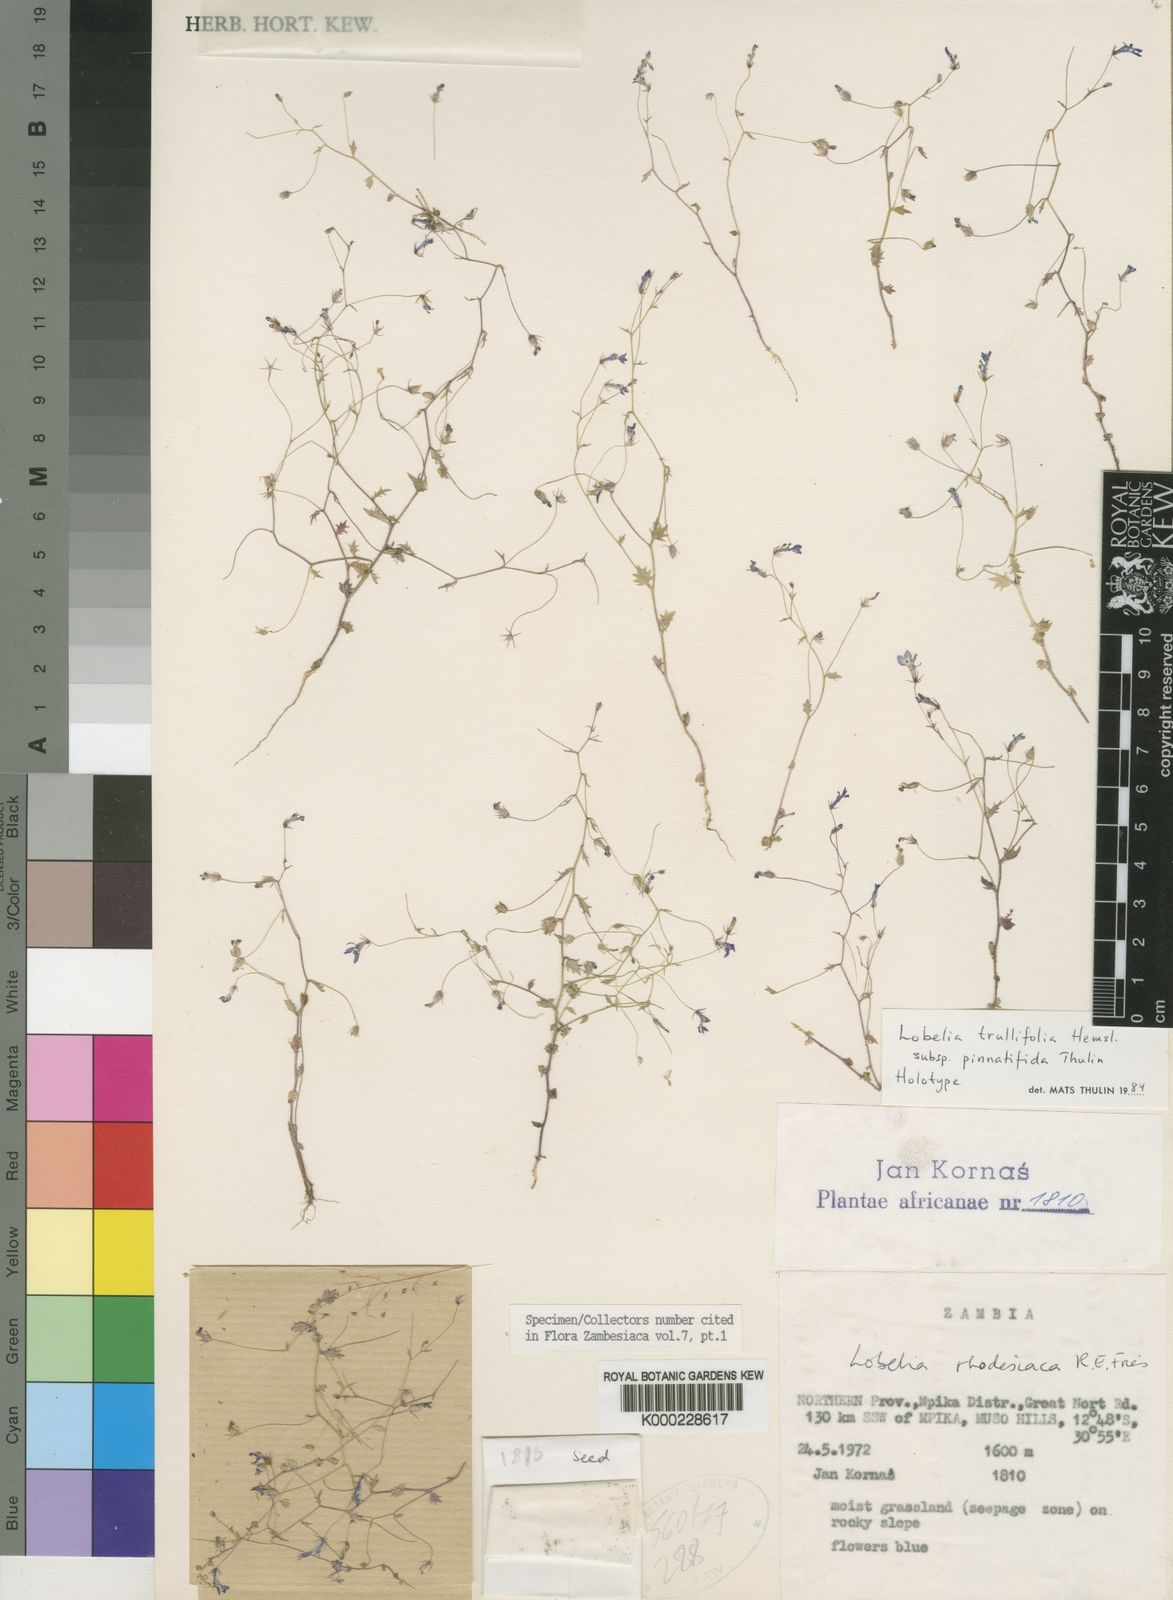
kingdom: Plantae
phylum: Tracheophyta
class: Magnoliopsida
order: Asterales
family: Campanulaceae
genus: Lobelia
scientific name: Lobelia trullifolia
